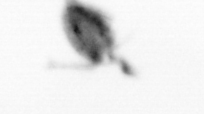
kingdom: Animalia
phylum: Arthropoda
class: Copepoda
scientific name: Copepoda
